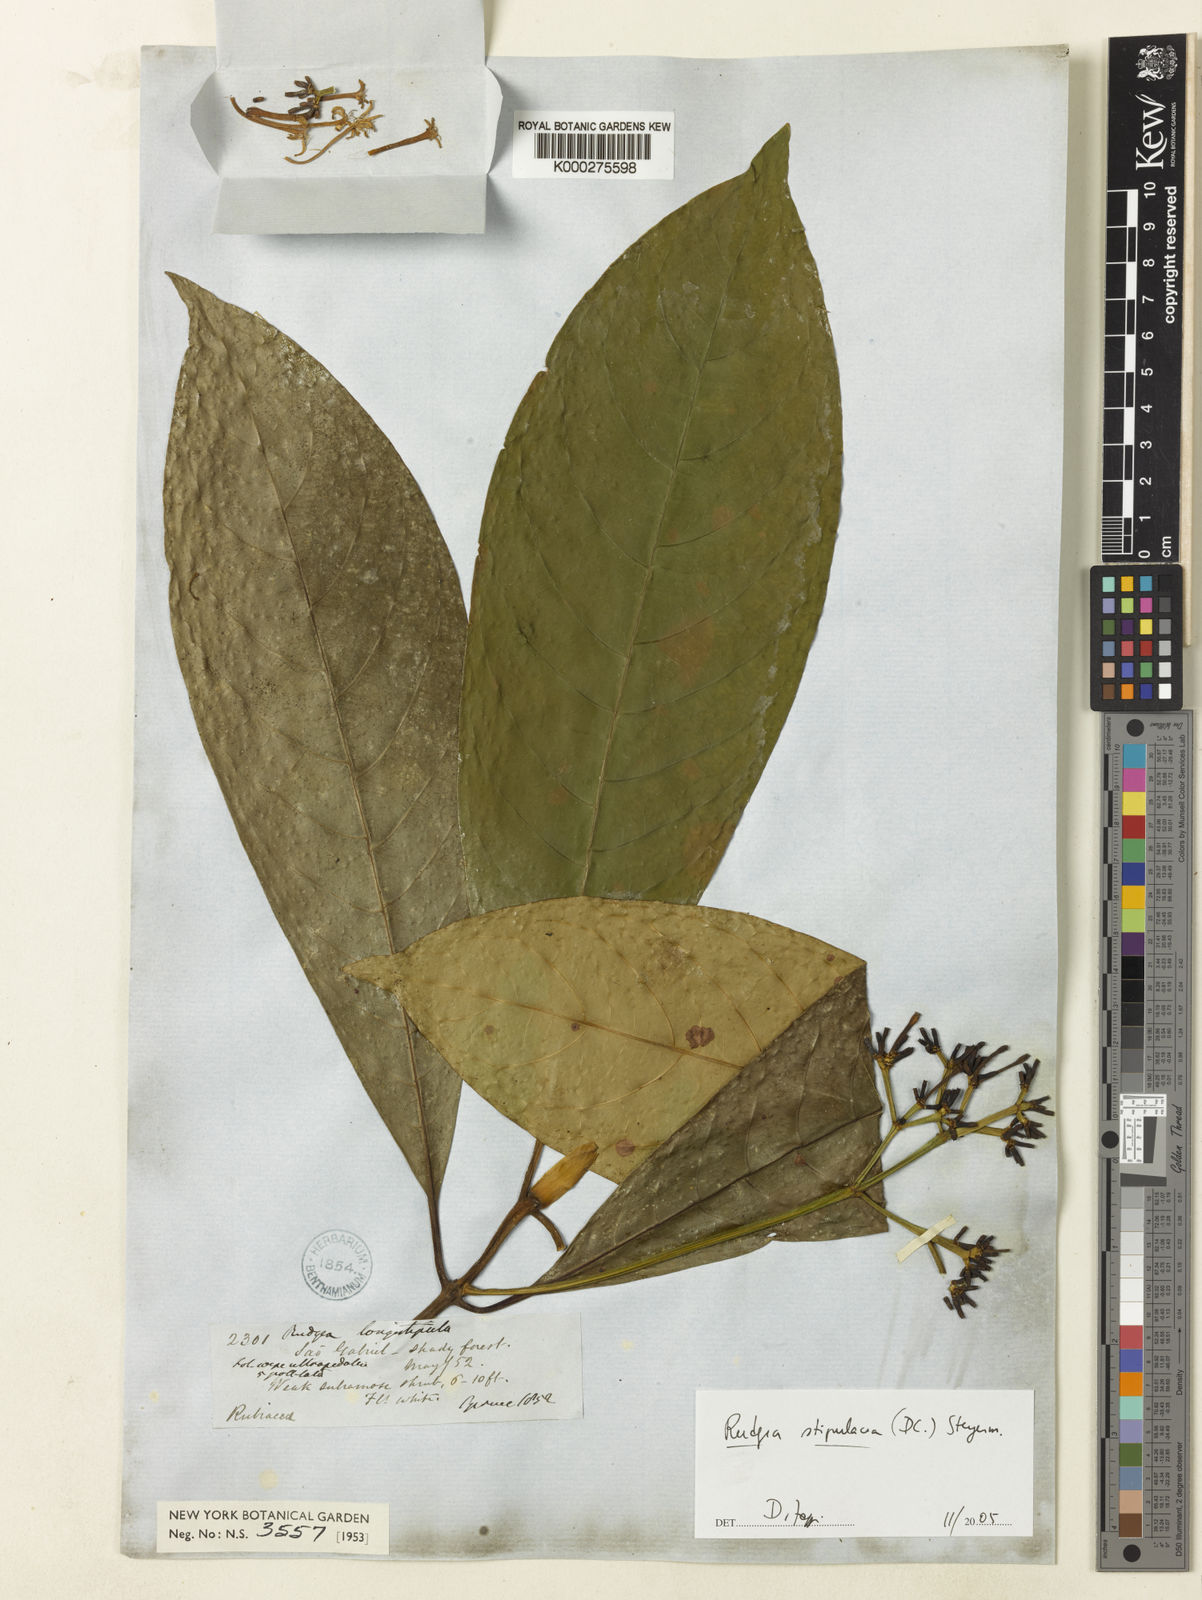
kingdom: Plantae
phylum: Tracheophyta
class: Magnoliopsida
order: Gentianales
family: Rubiaceae
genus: Rudgea
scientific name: Rudgea stipulacea
